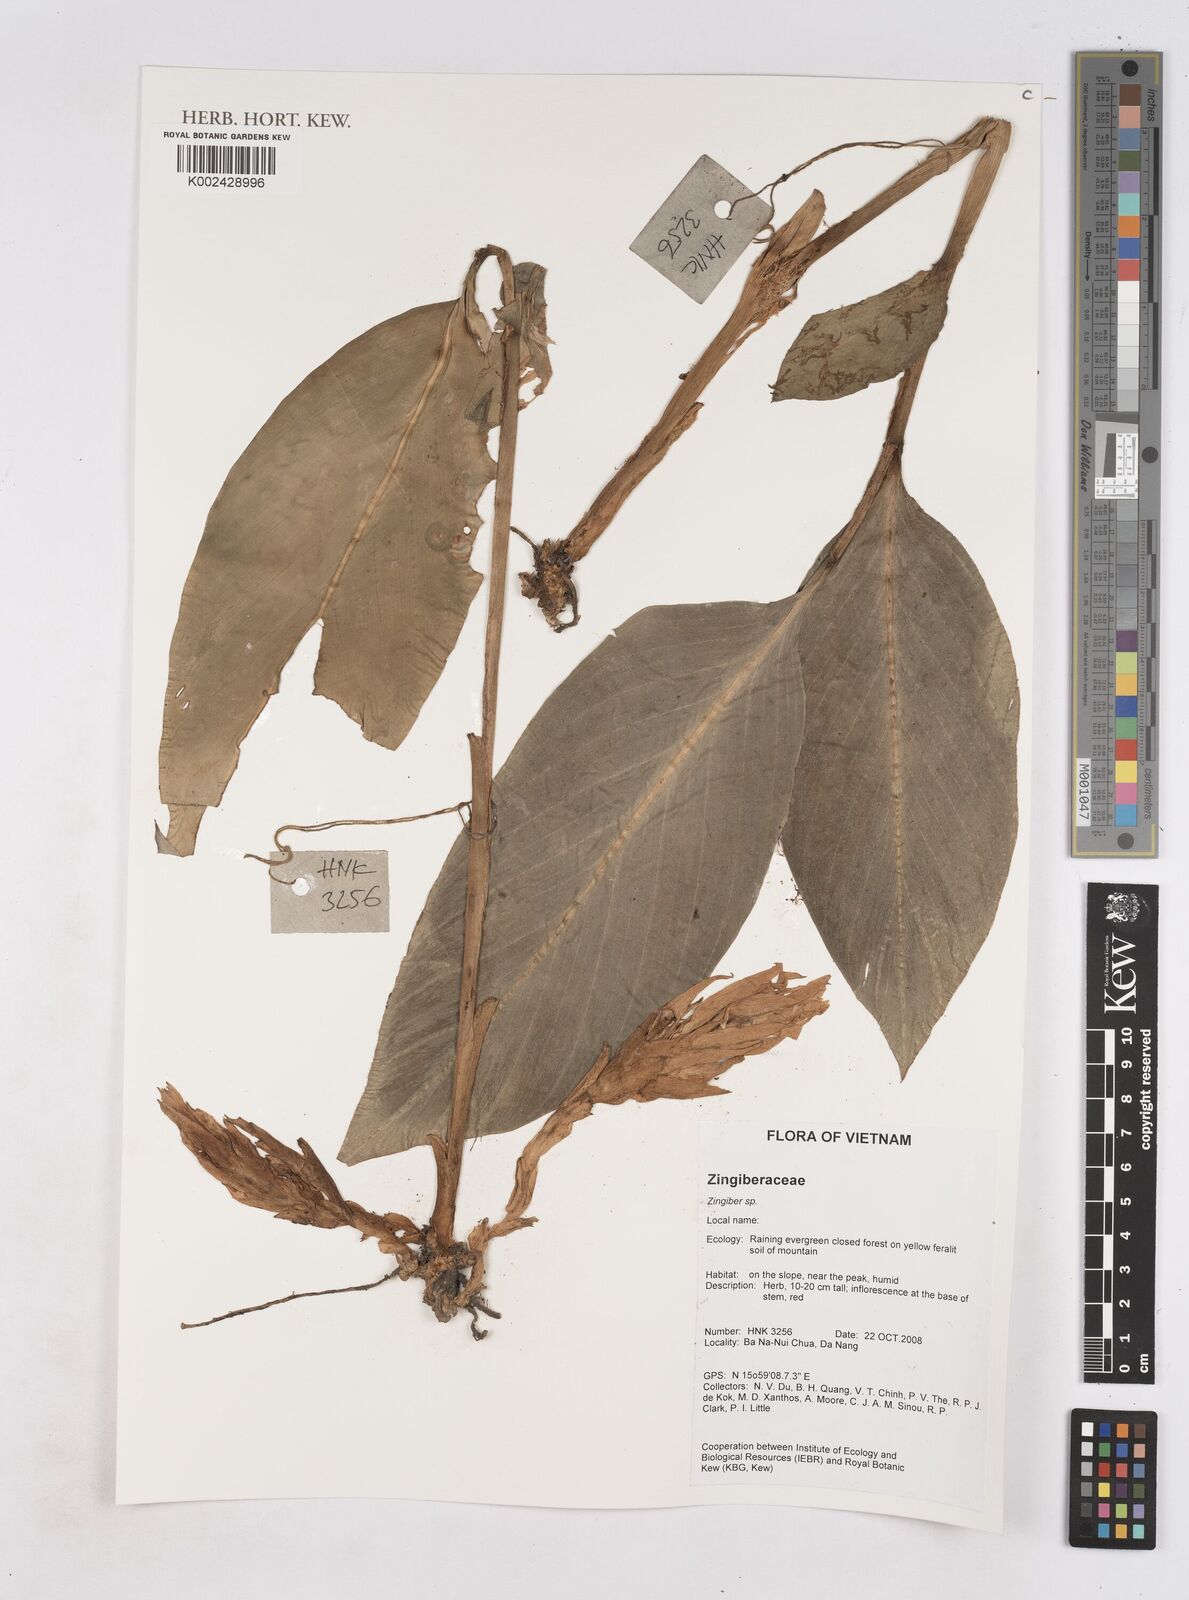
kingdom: Plantae
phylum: Tracheophyta
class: Liliopsida
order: Zingiberales
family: Zingiberaceae
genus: Zingiber
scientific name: Zingiber
